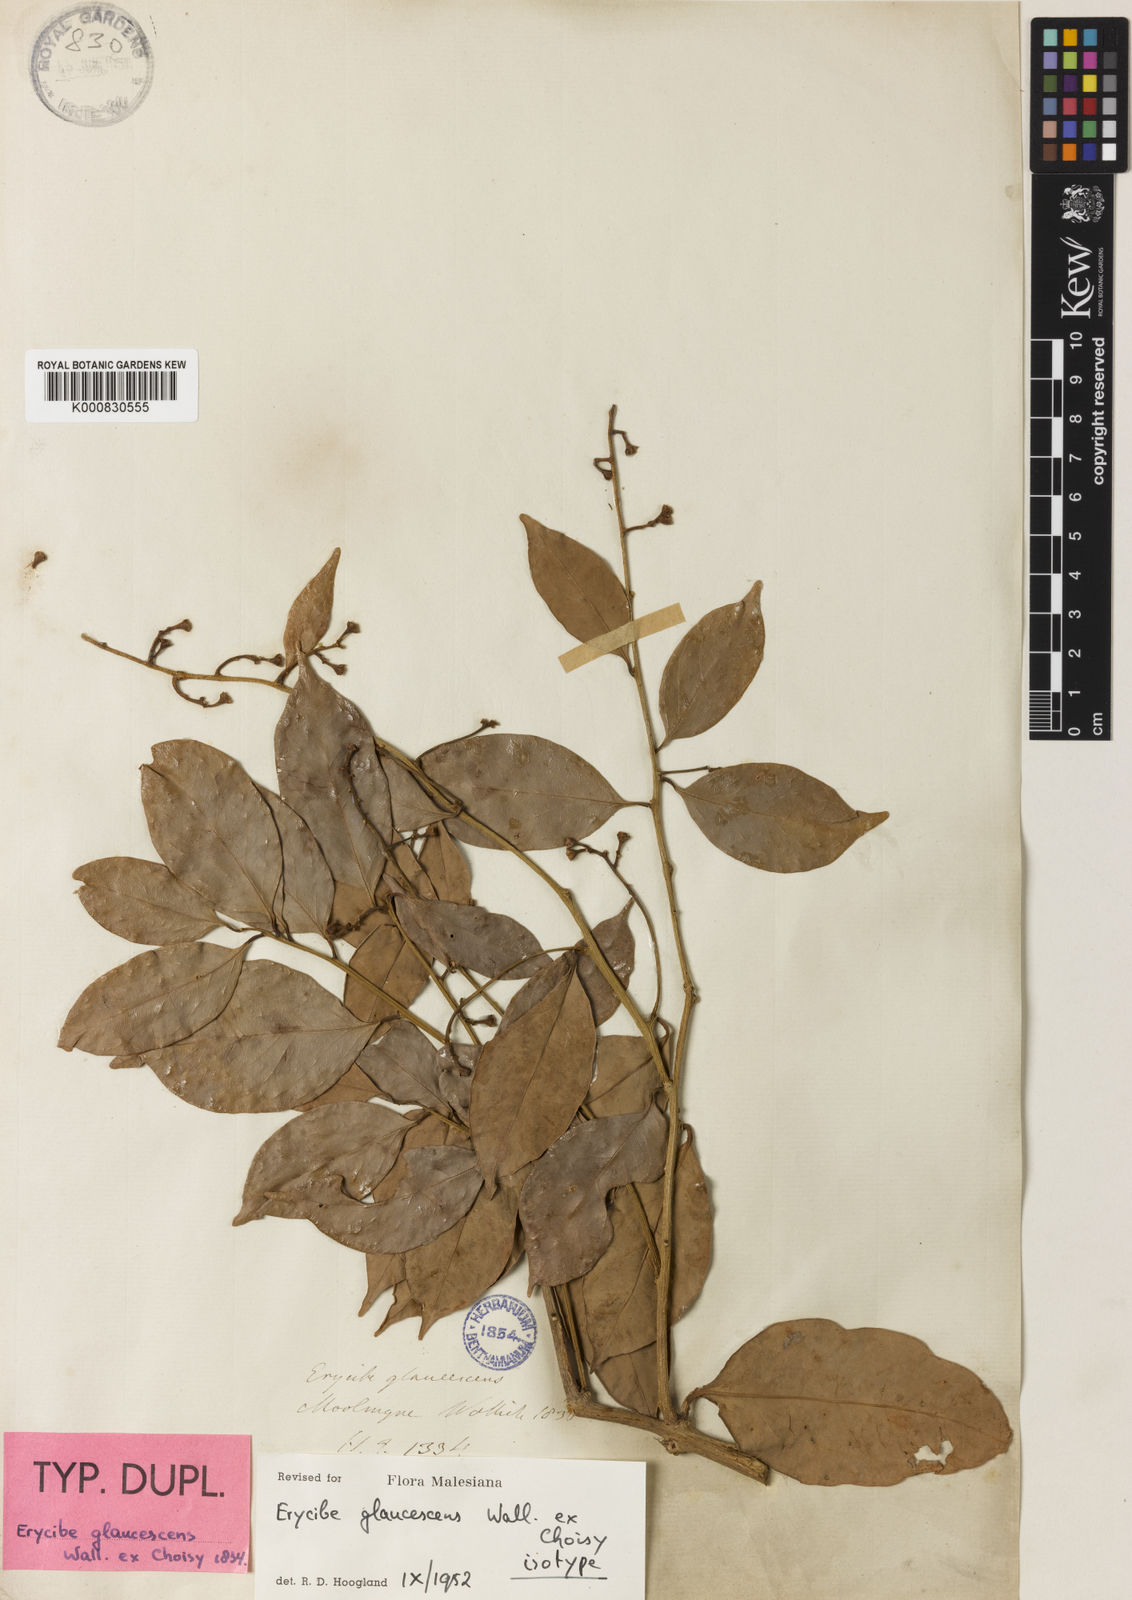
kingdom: Plantae
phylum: Tracheophyta
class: Magnoliopsida
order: Solanales
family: Convolvulaceae
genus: Erycibe
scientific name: Erycibe
